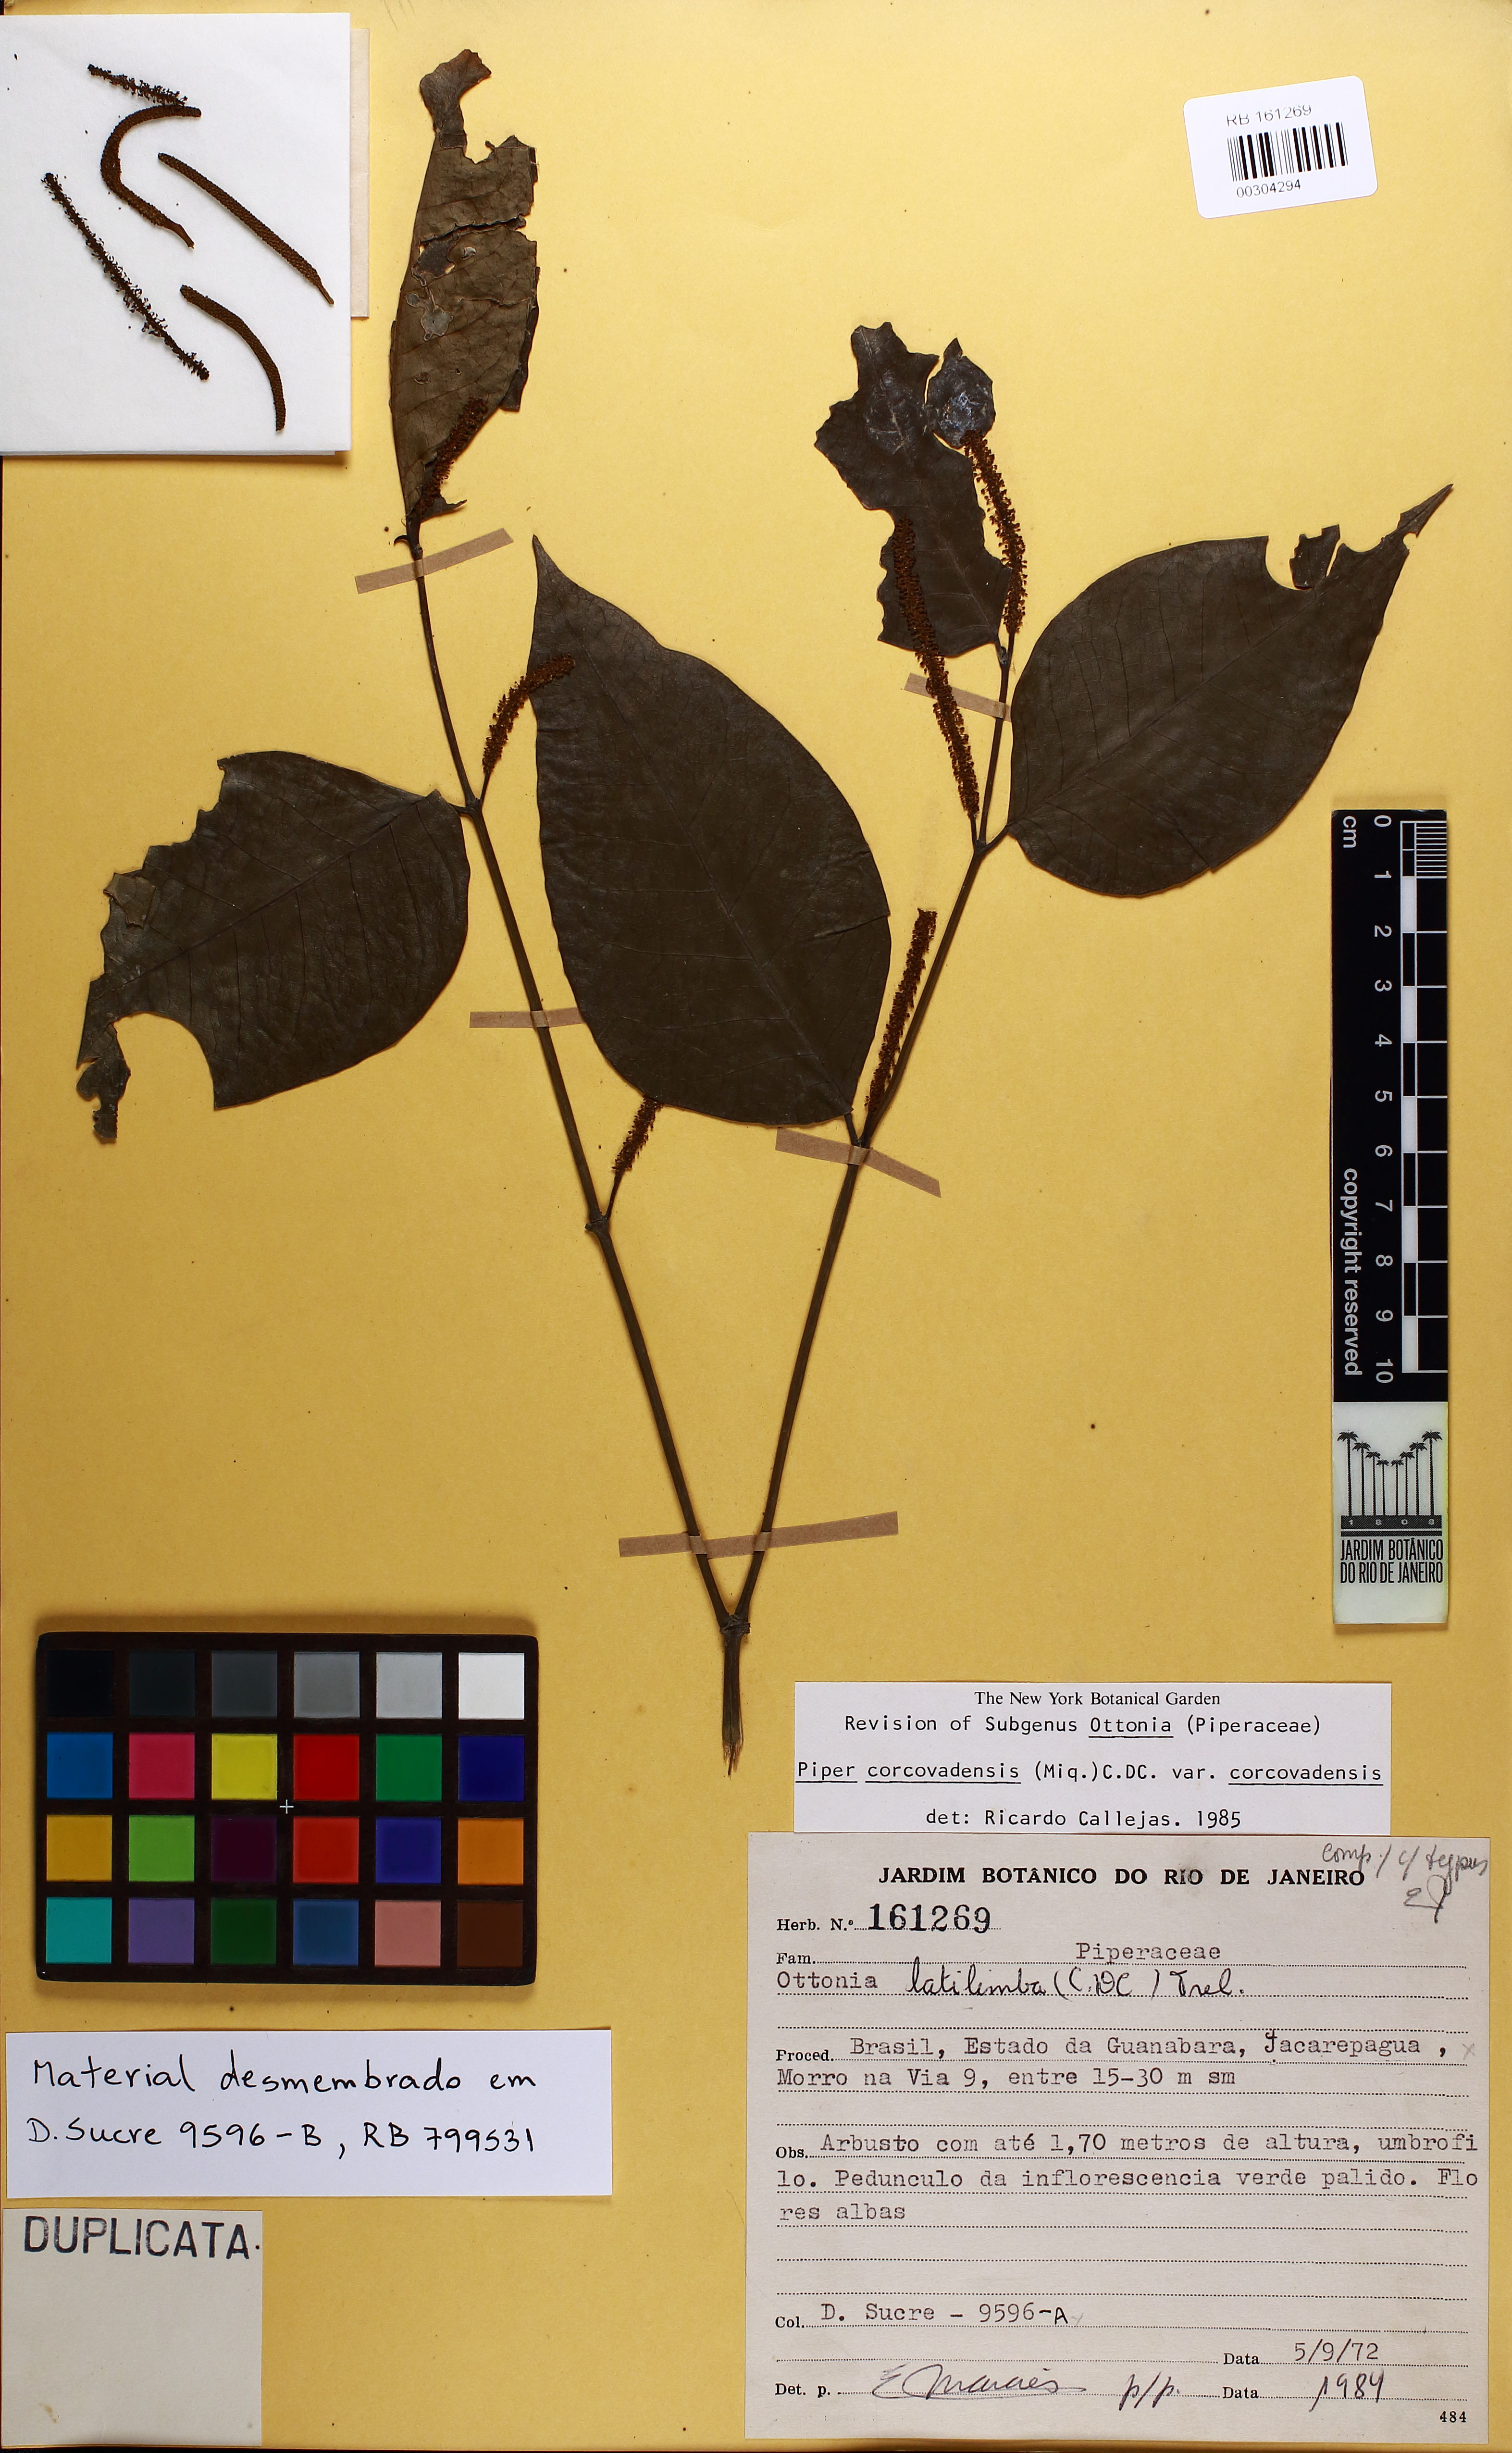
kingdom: Plantae
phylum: Tracheophyta
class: Magnoliopsida
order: Piperales
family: Piperaceae
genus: Piper
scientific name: Piper corcovadense
